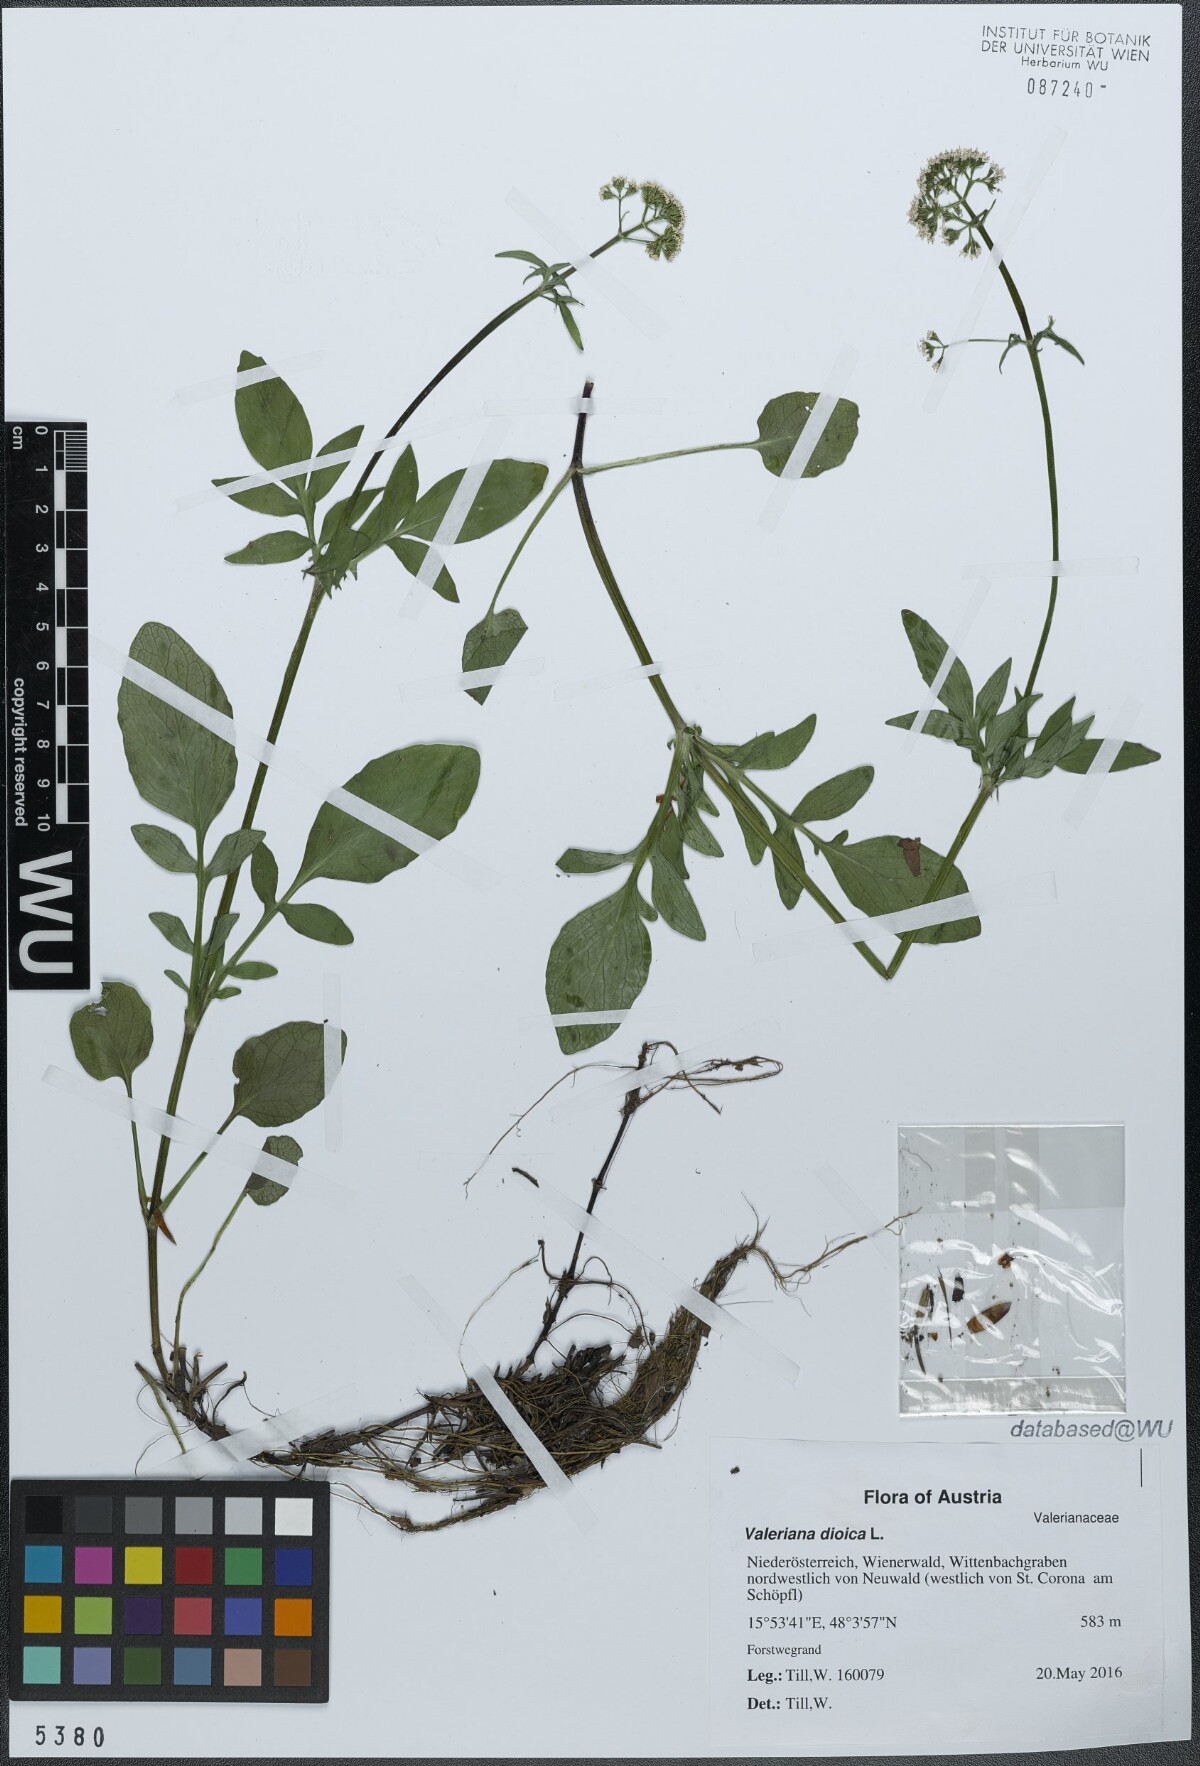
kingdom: Plantae
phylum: Tracheophyta
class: Magnoliopsida
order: Dipsacales
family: Caprifoliaceae
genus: Valeriana
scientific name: Valeriana dioica
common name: Marsh valerian
